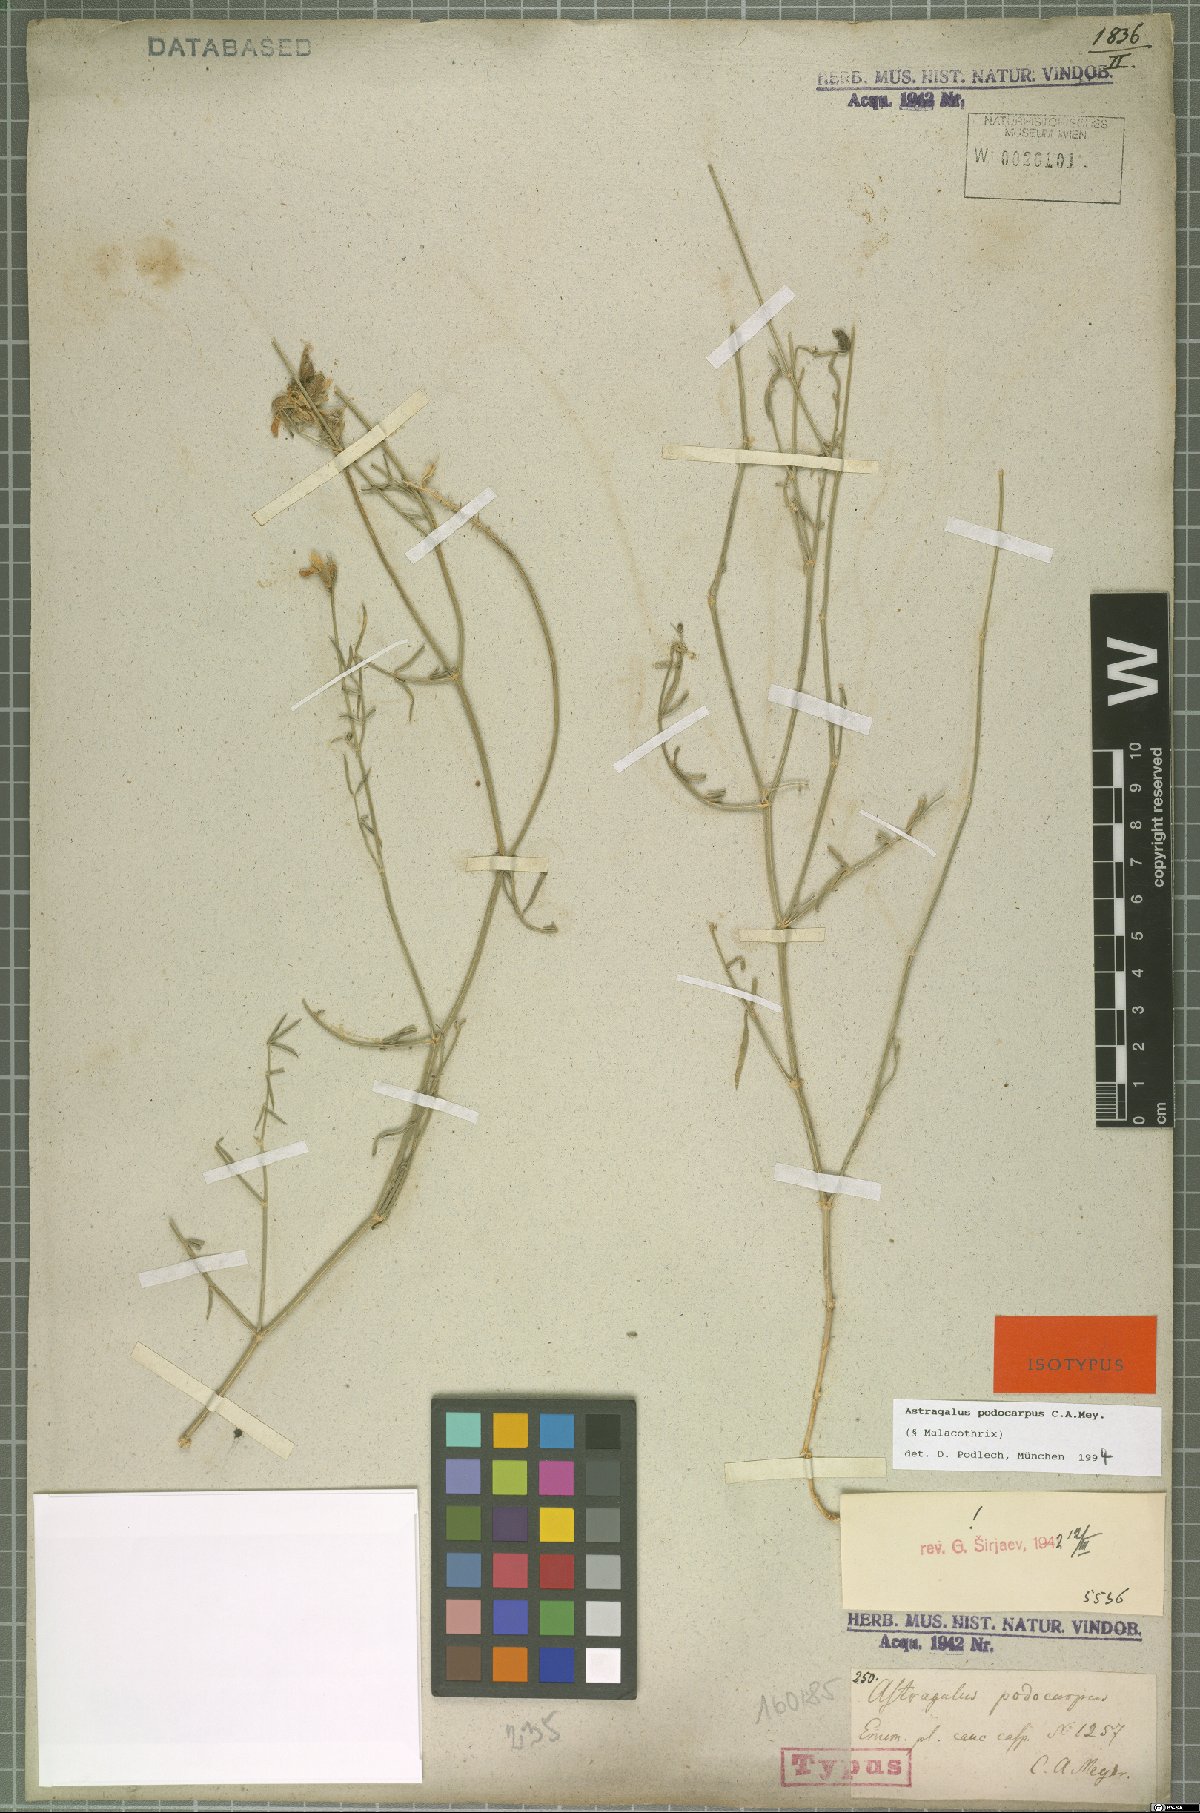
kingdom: Plantae
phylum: Tracheophyta
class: Magnoliopsida
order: Fabales
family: Fabaceae
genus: Astragalus
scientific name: Astragalus podocarpus
